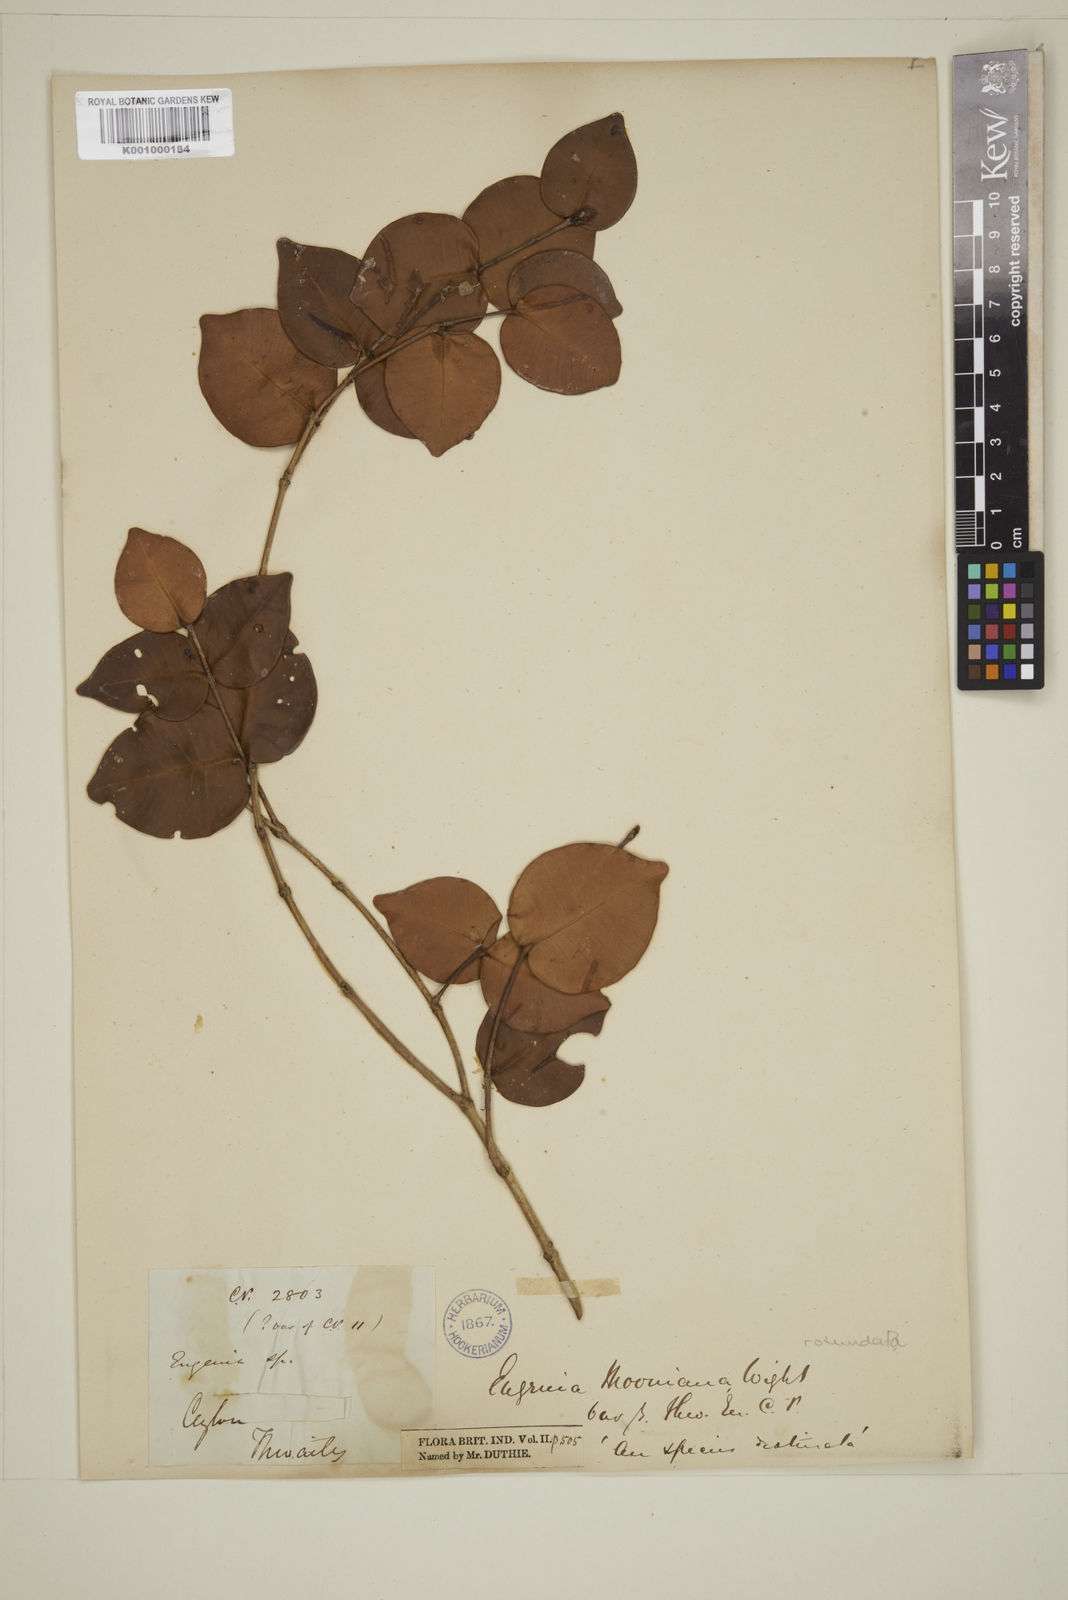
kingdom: Plantae
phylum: Tracheophyta
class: Magnoliopsida
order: Myrtales
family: Myrtaceae
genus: Eugenia
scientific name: Eugenia rotundata
